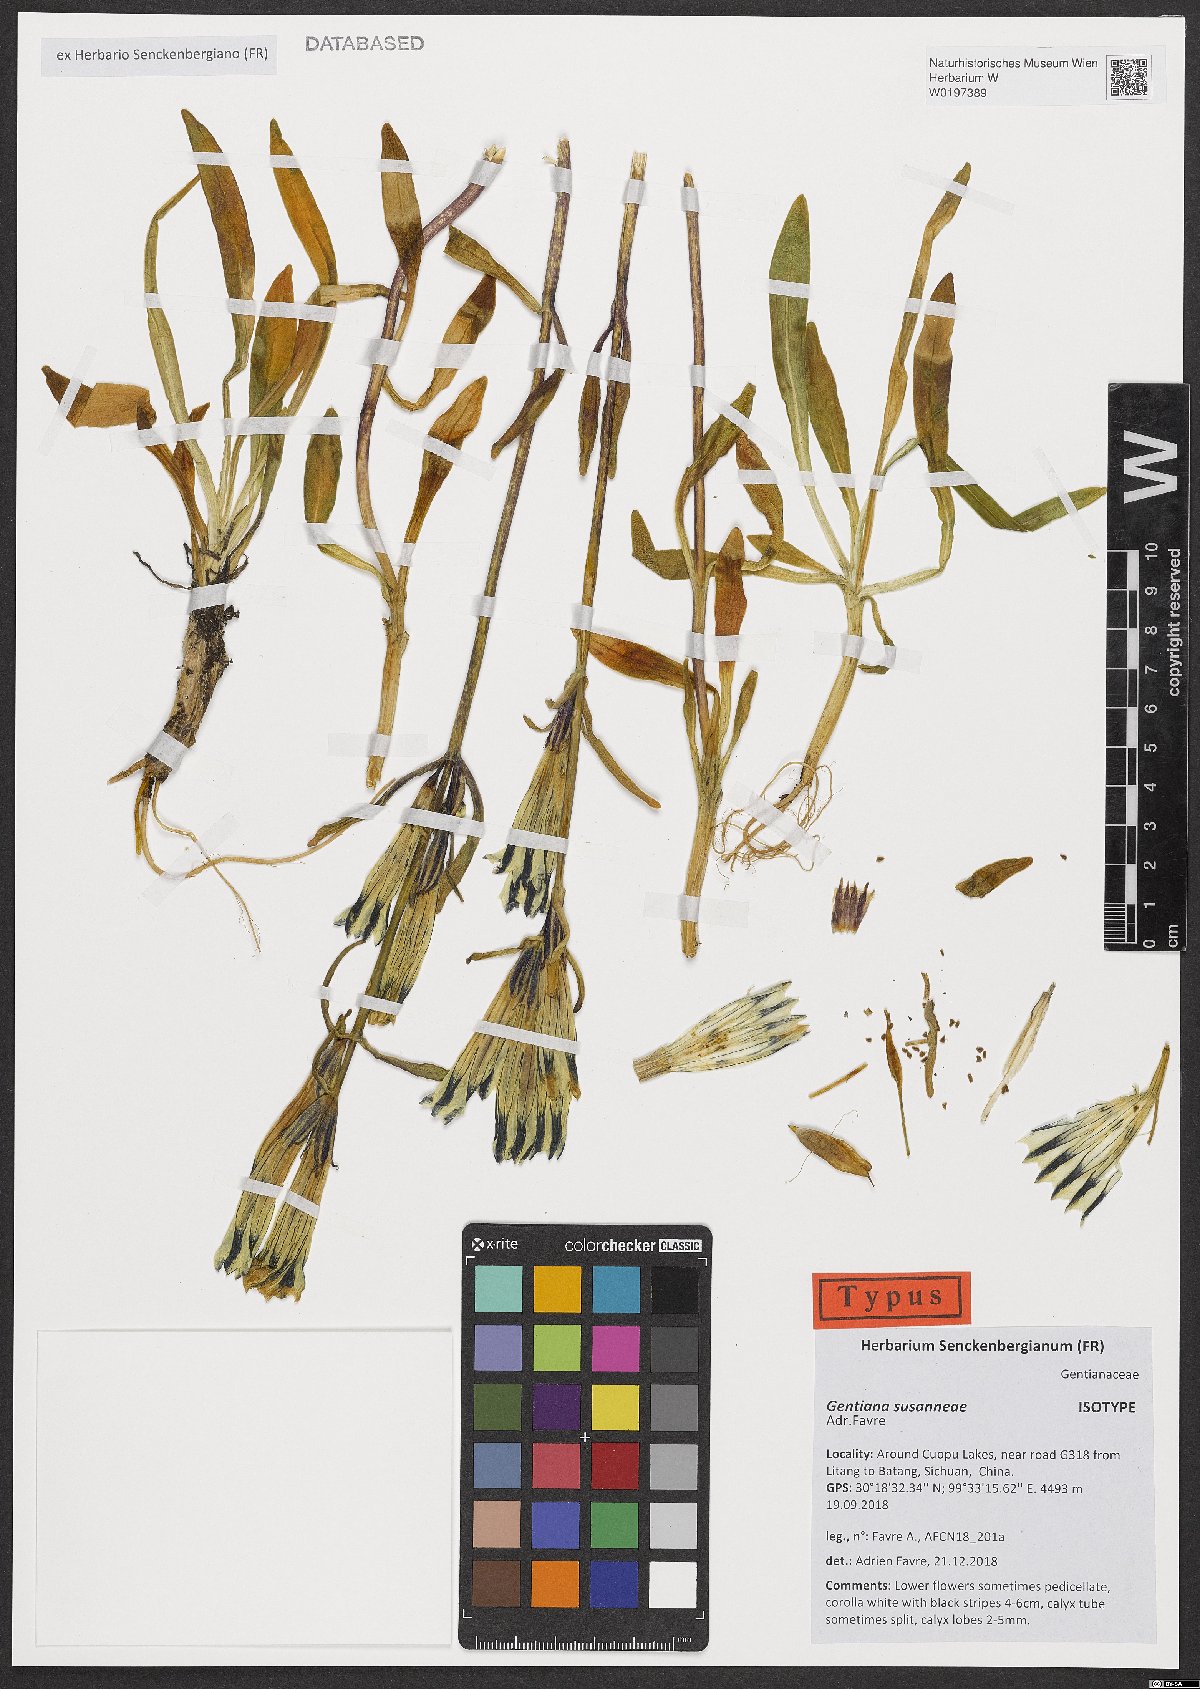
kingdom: Plantae
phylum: Tracheophyta
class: Magnoliopsida
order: Gentianales
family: Gentianaceae
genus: Gentiana
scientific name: Gentiana susanneae
